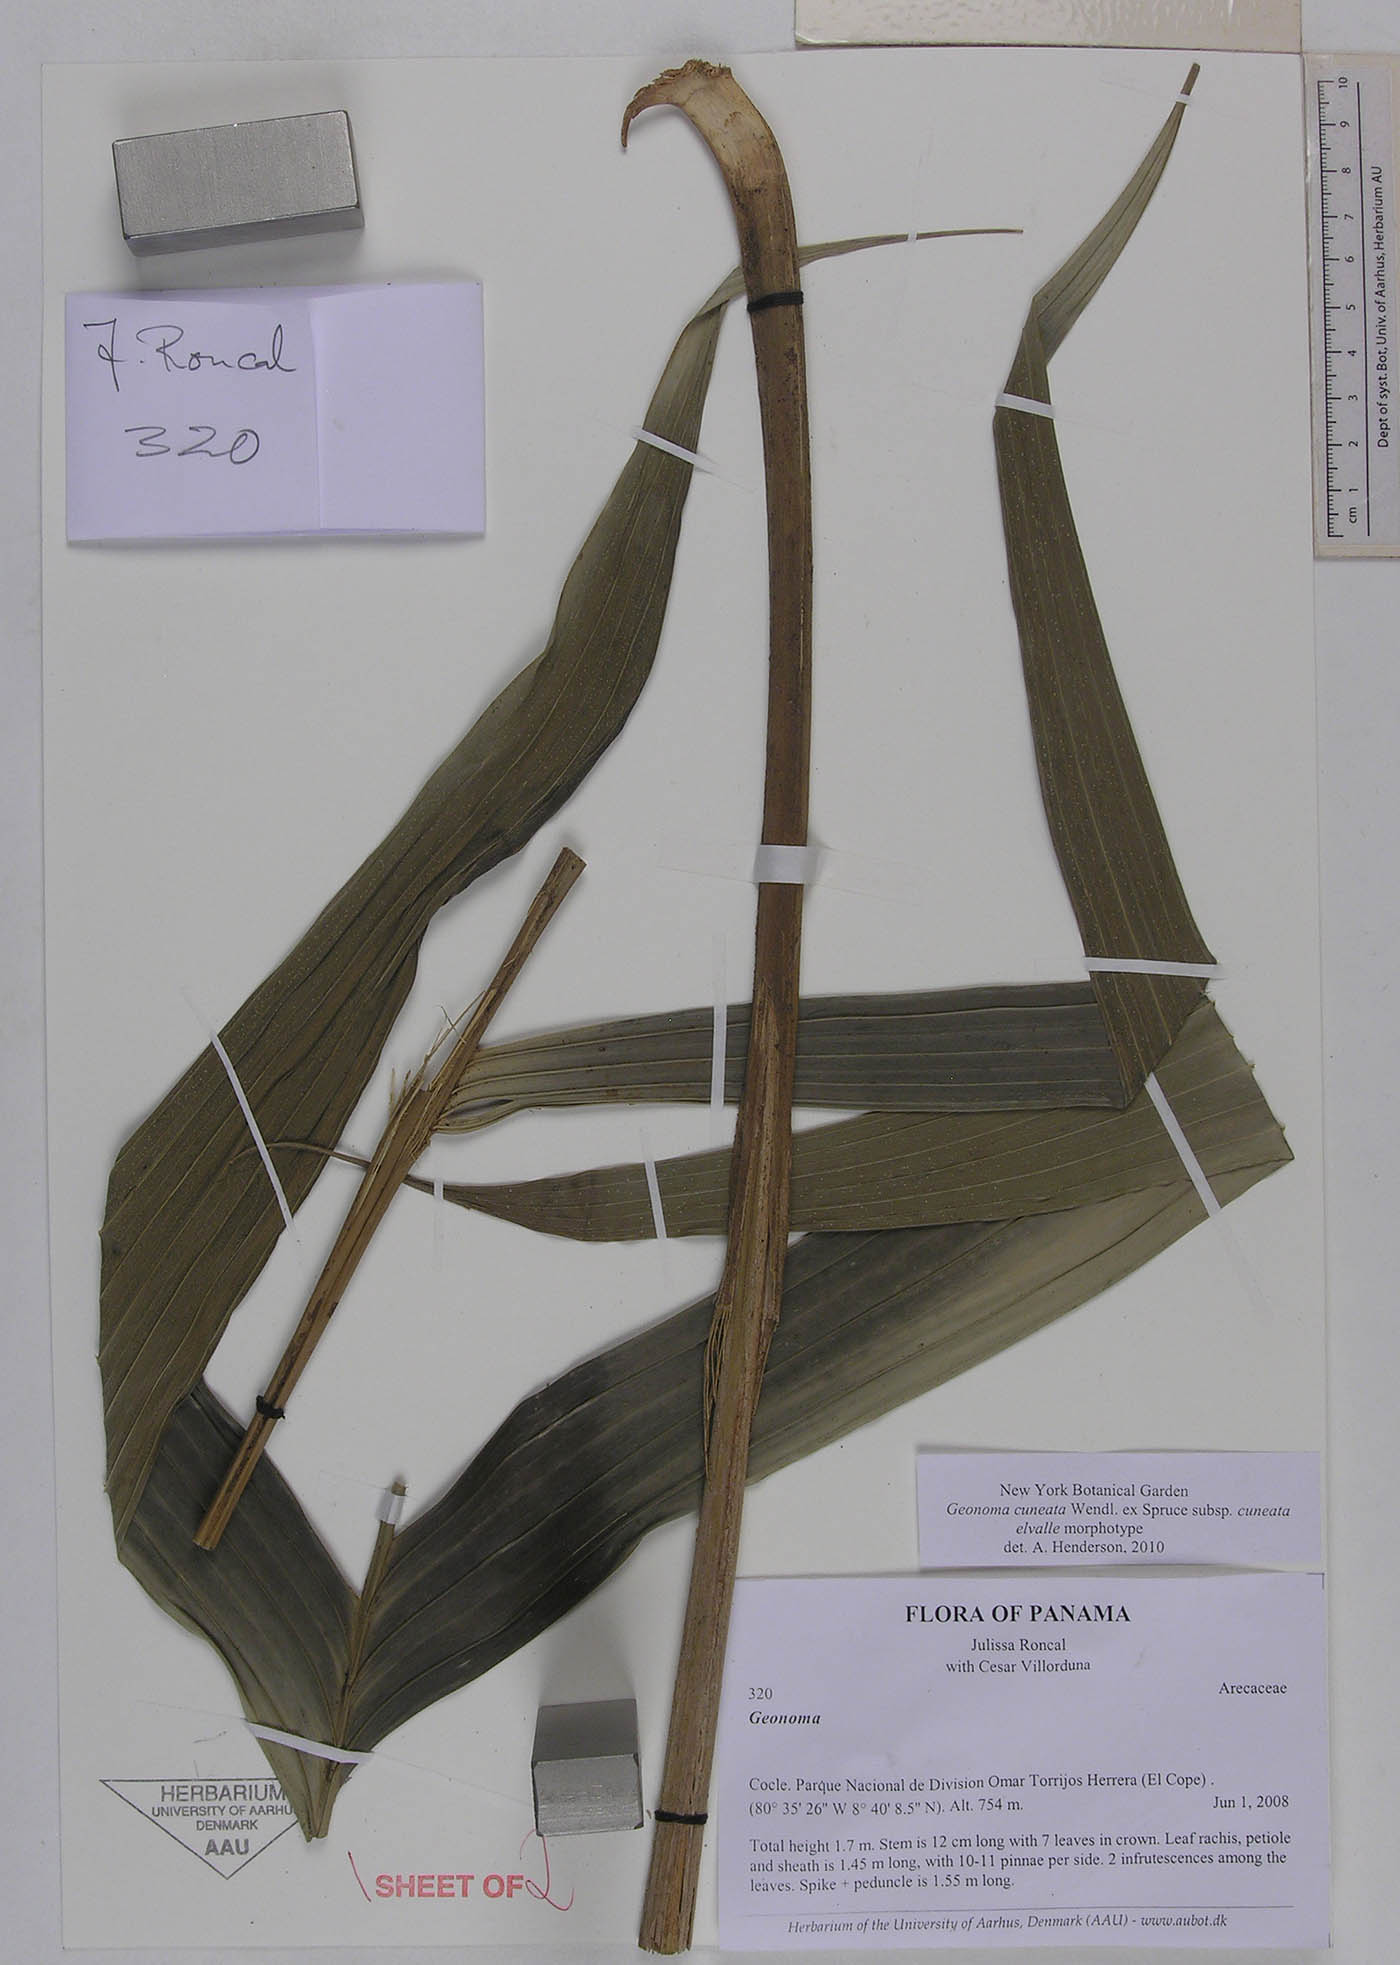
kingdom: Plantae
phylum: Tracheophyta
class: Liliopsida
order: Arecales
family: Arecaceae
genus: Geonoma
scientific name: Geonoma cuneata
